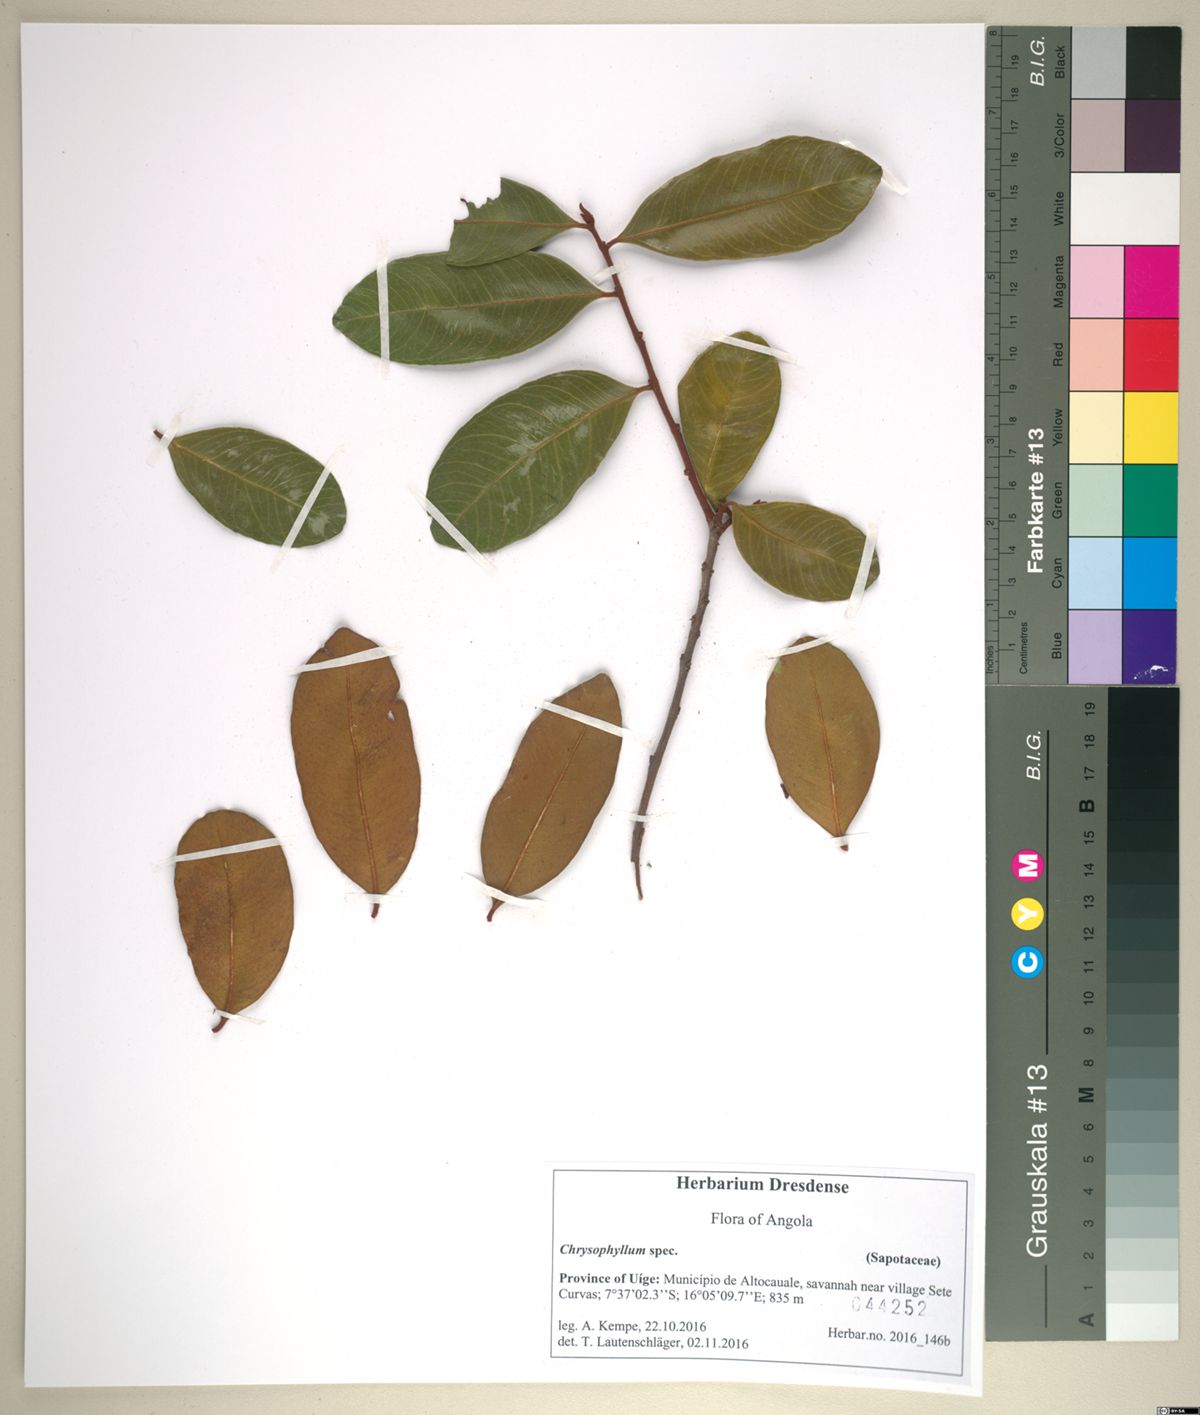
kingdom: Plantae
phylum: Tracheophyta
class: Magnoliopsida
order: Ericales
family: Sapotaceae
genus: Donella
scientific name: Donella bangweolensis
